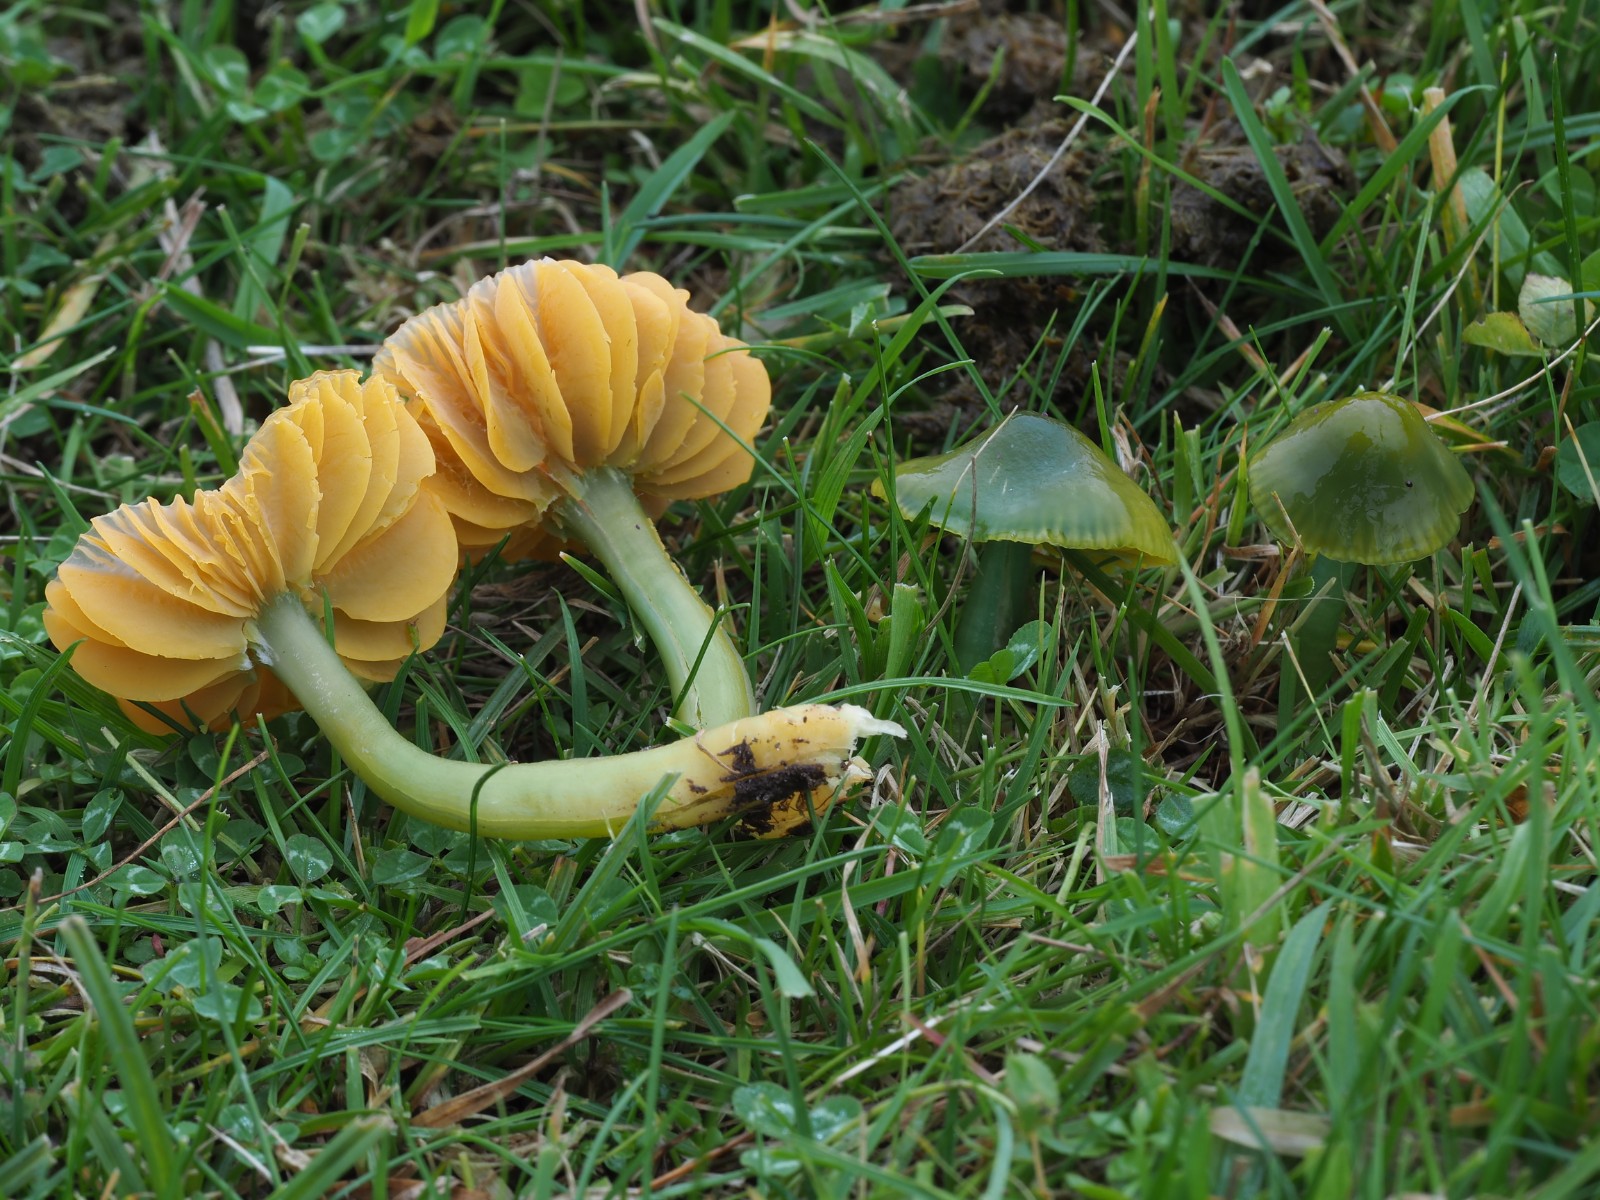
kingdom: Fungi
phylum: Basidiomycota
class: Agaricomycetes
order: Agaricales
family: Hygrophoraceae
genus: Gliophorus
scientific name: Gliophorus psittacinus
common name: papegøje-vokshat
